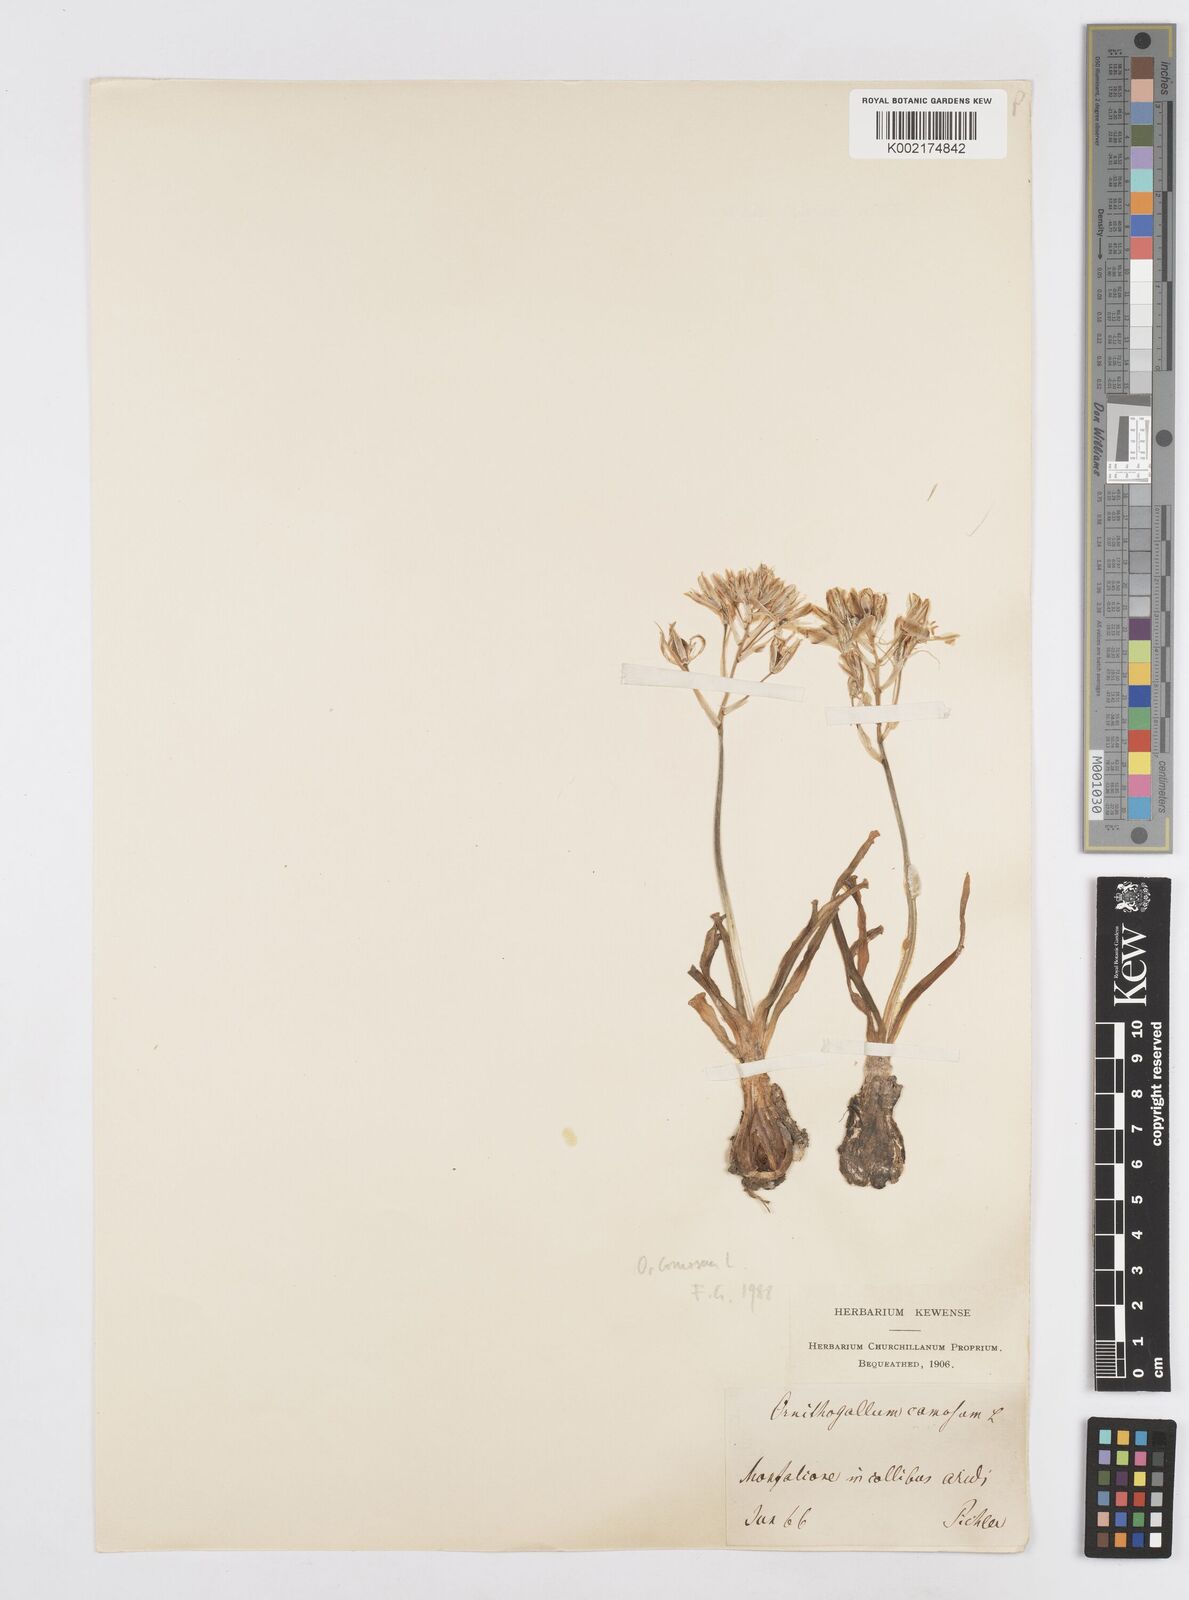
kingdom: Plantae
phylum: Tracheophyta
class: Liliopsida
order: Asparagales
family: Asparagaceae
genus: Ornithogalum
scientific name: Ornithogalum comosum
